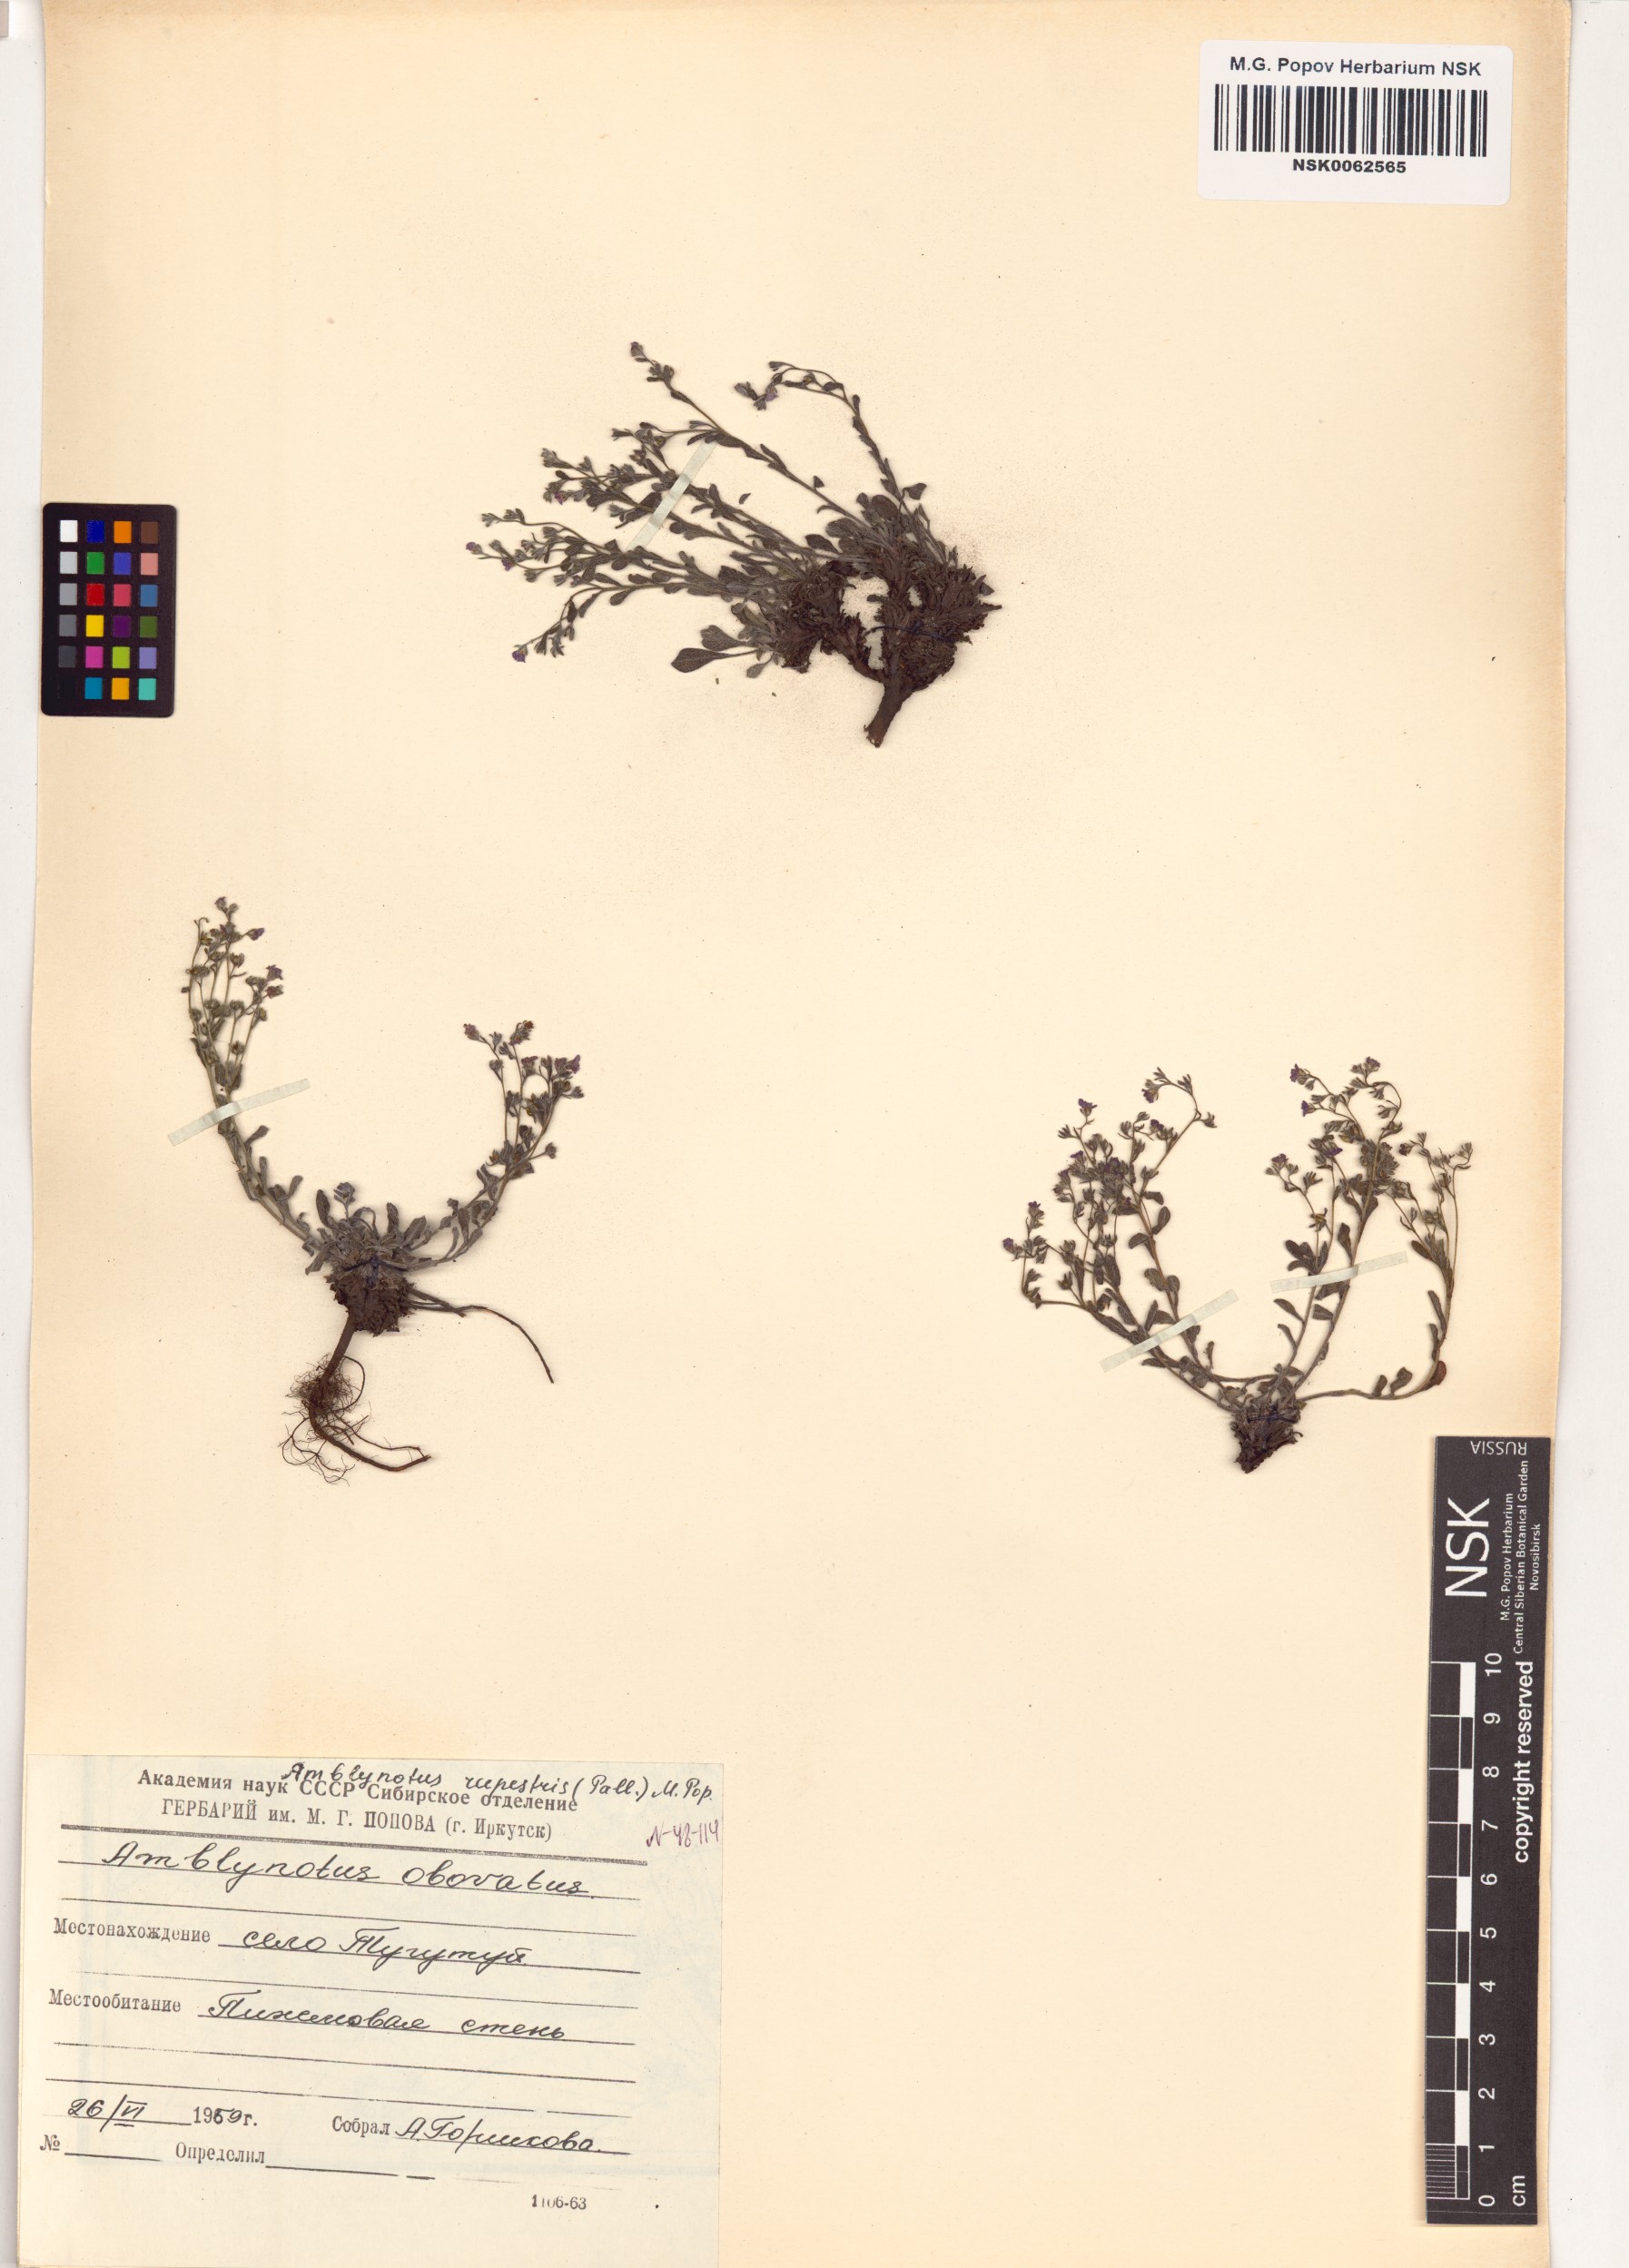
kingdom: Plantae
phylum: Tracheophyta
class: Magnoliopsida
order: Boraginales
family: Boraginaceae
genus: Eritrichium
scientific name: Eritrichium rupestre
